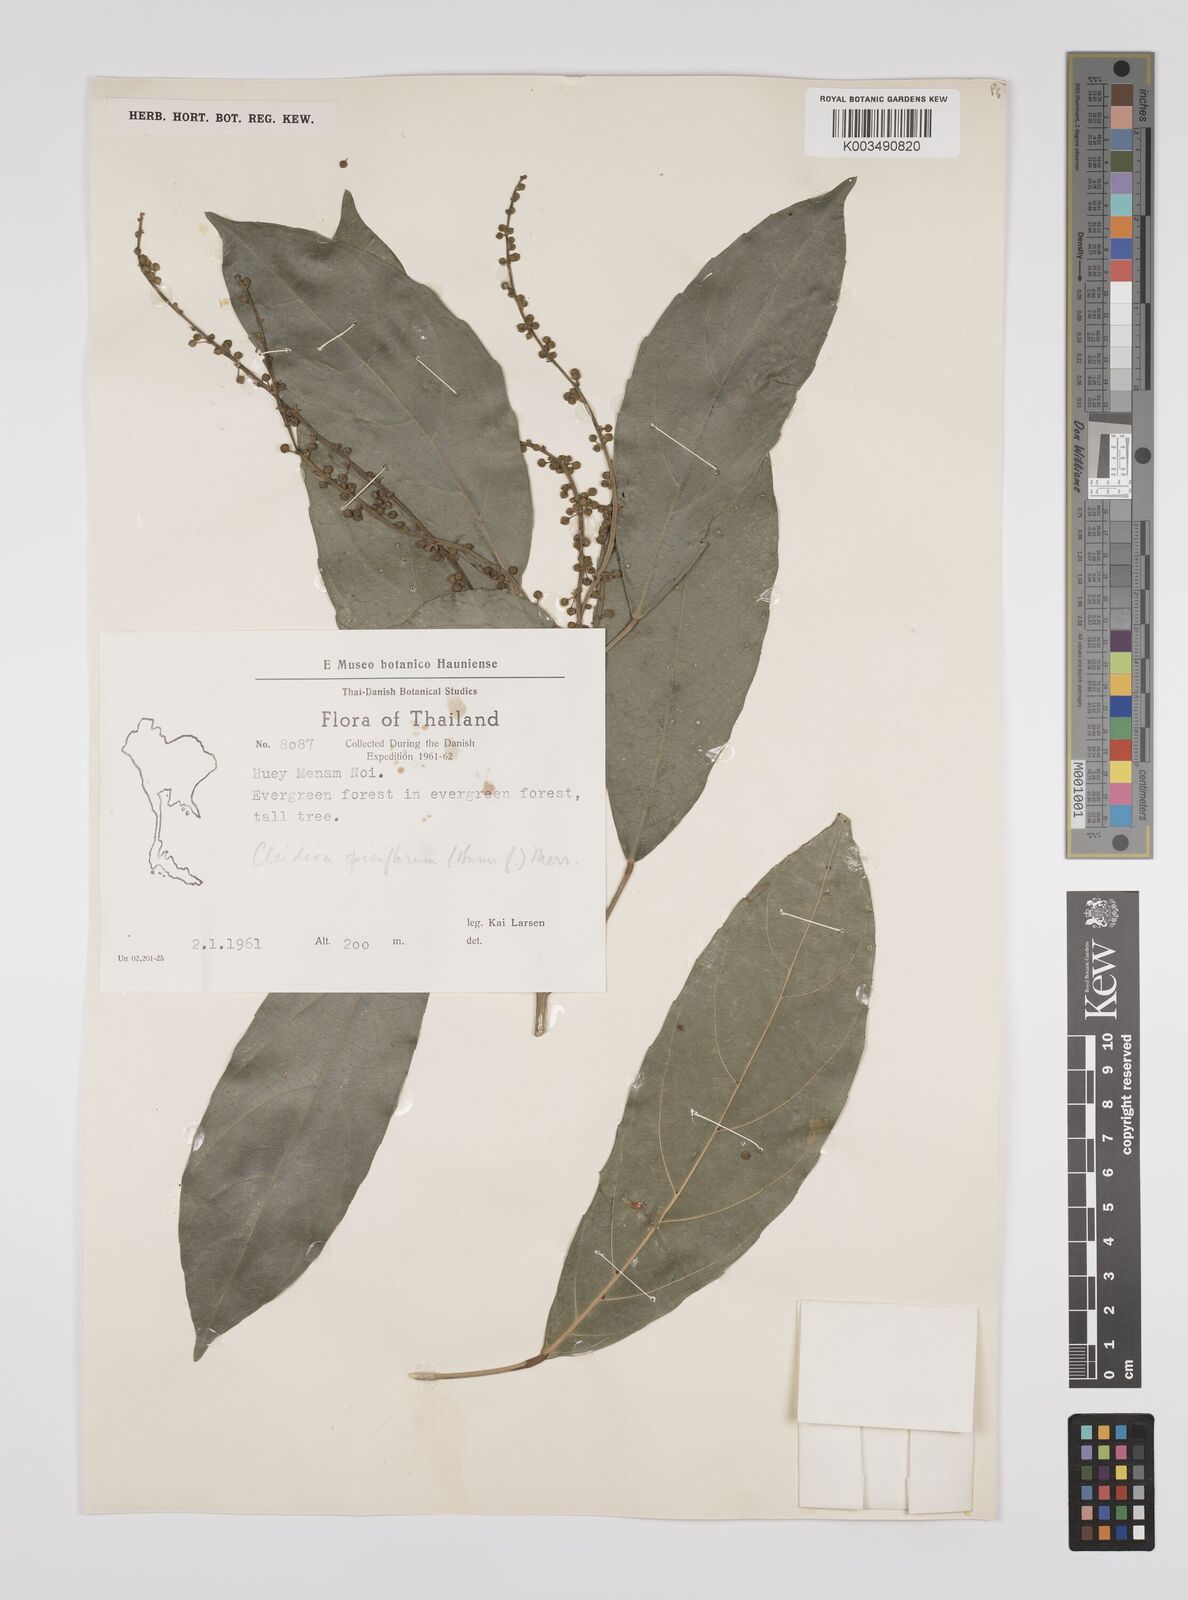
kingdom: Plantae
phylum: Tracheophyta
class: Magnoliopsida
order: Malpighiales
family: Euphorbiaceae
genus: Acalypha
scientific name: Acalypha spiciflora
